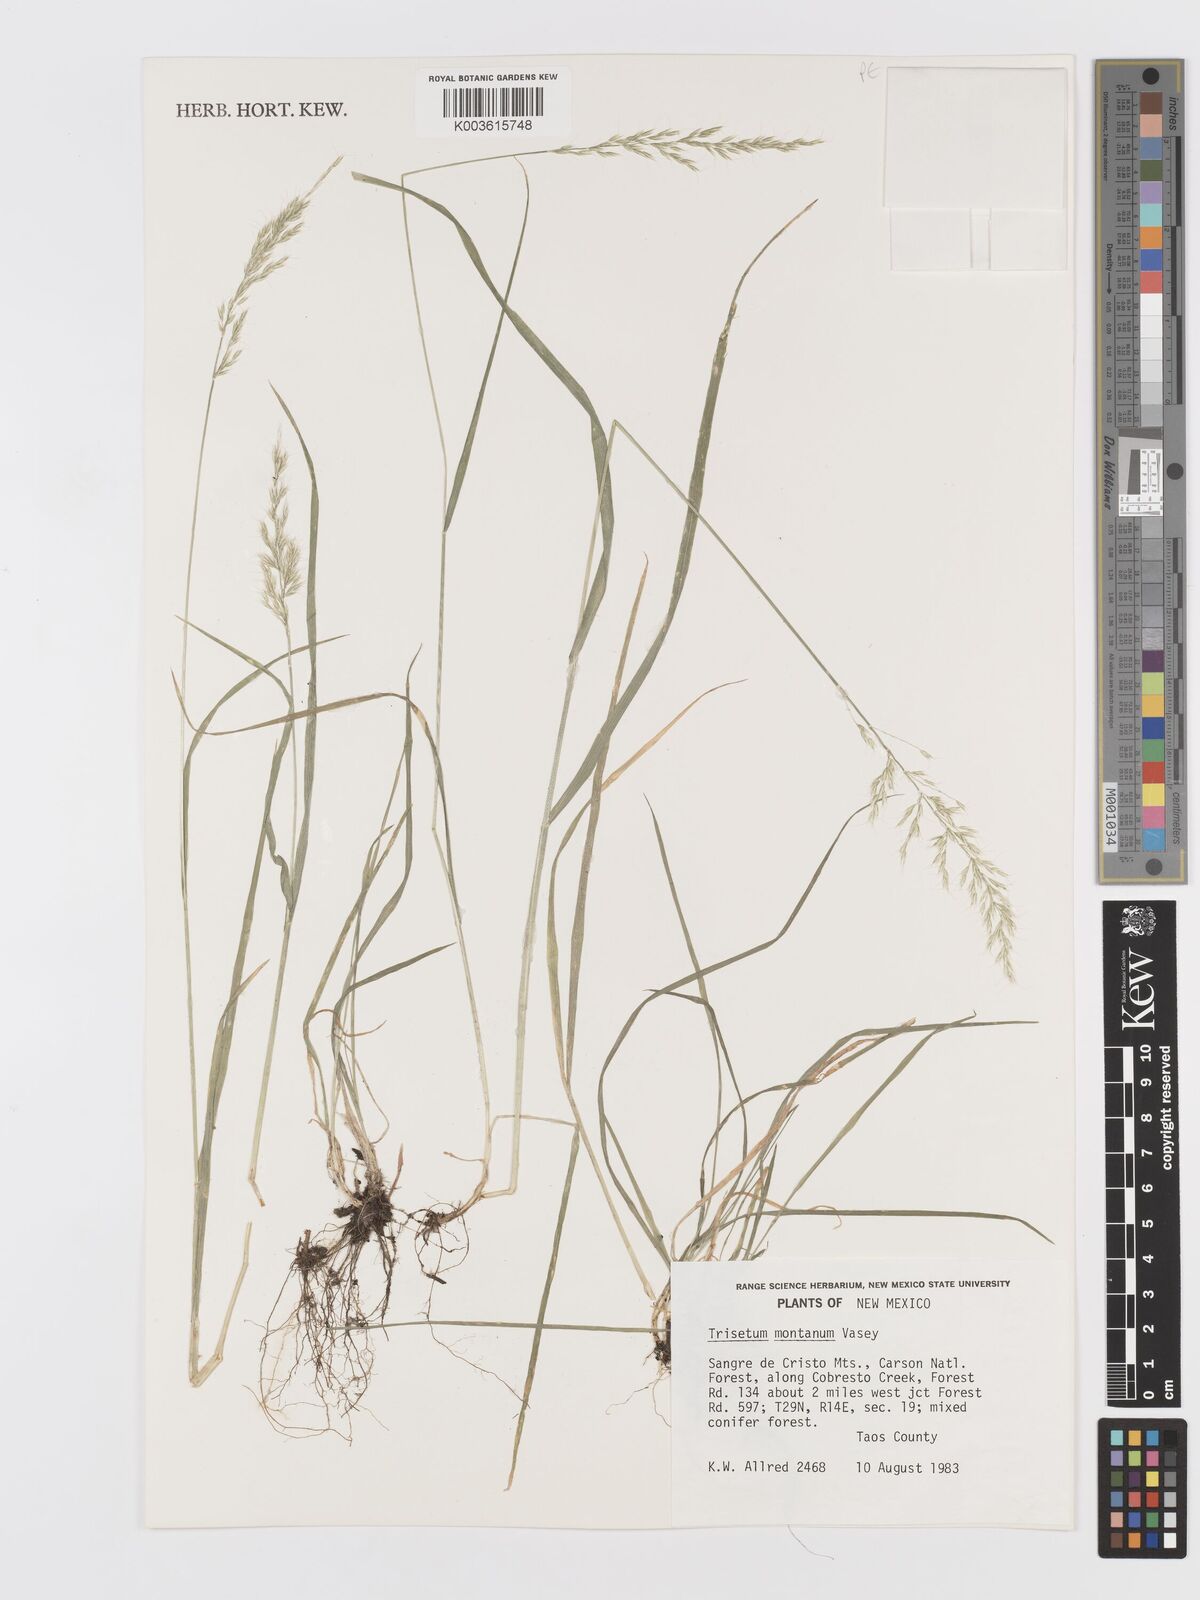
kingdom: Plantae
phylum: Tracheophyta
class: Liliopsida
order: Poales
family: Poaceae
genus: Koeleria
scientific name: Koeleria vaseyi
